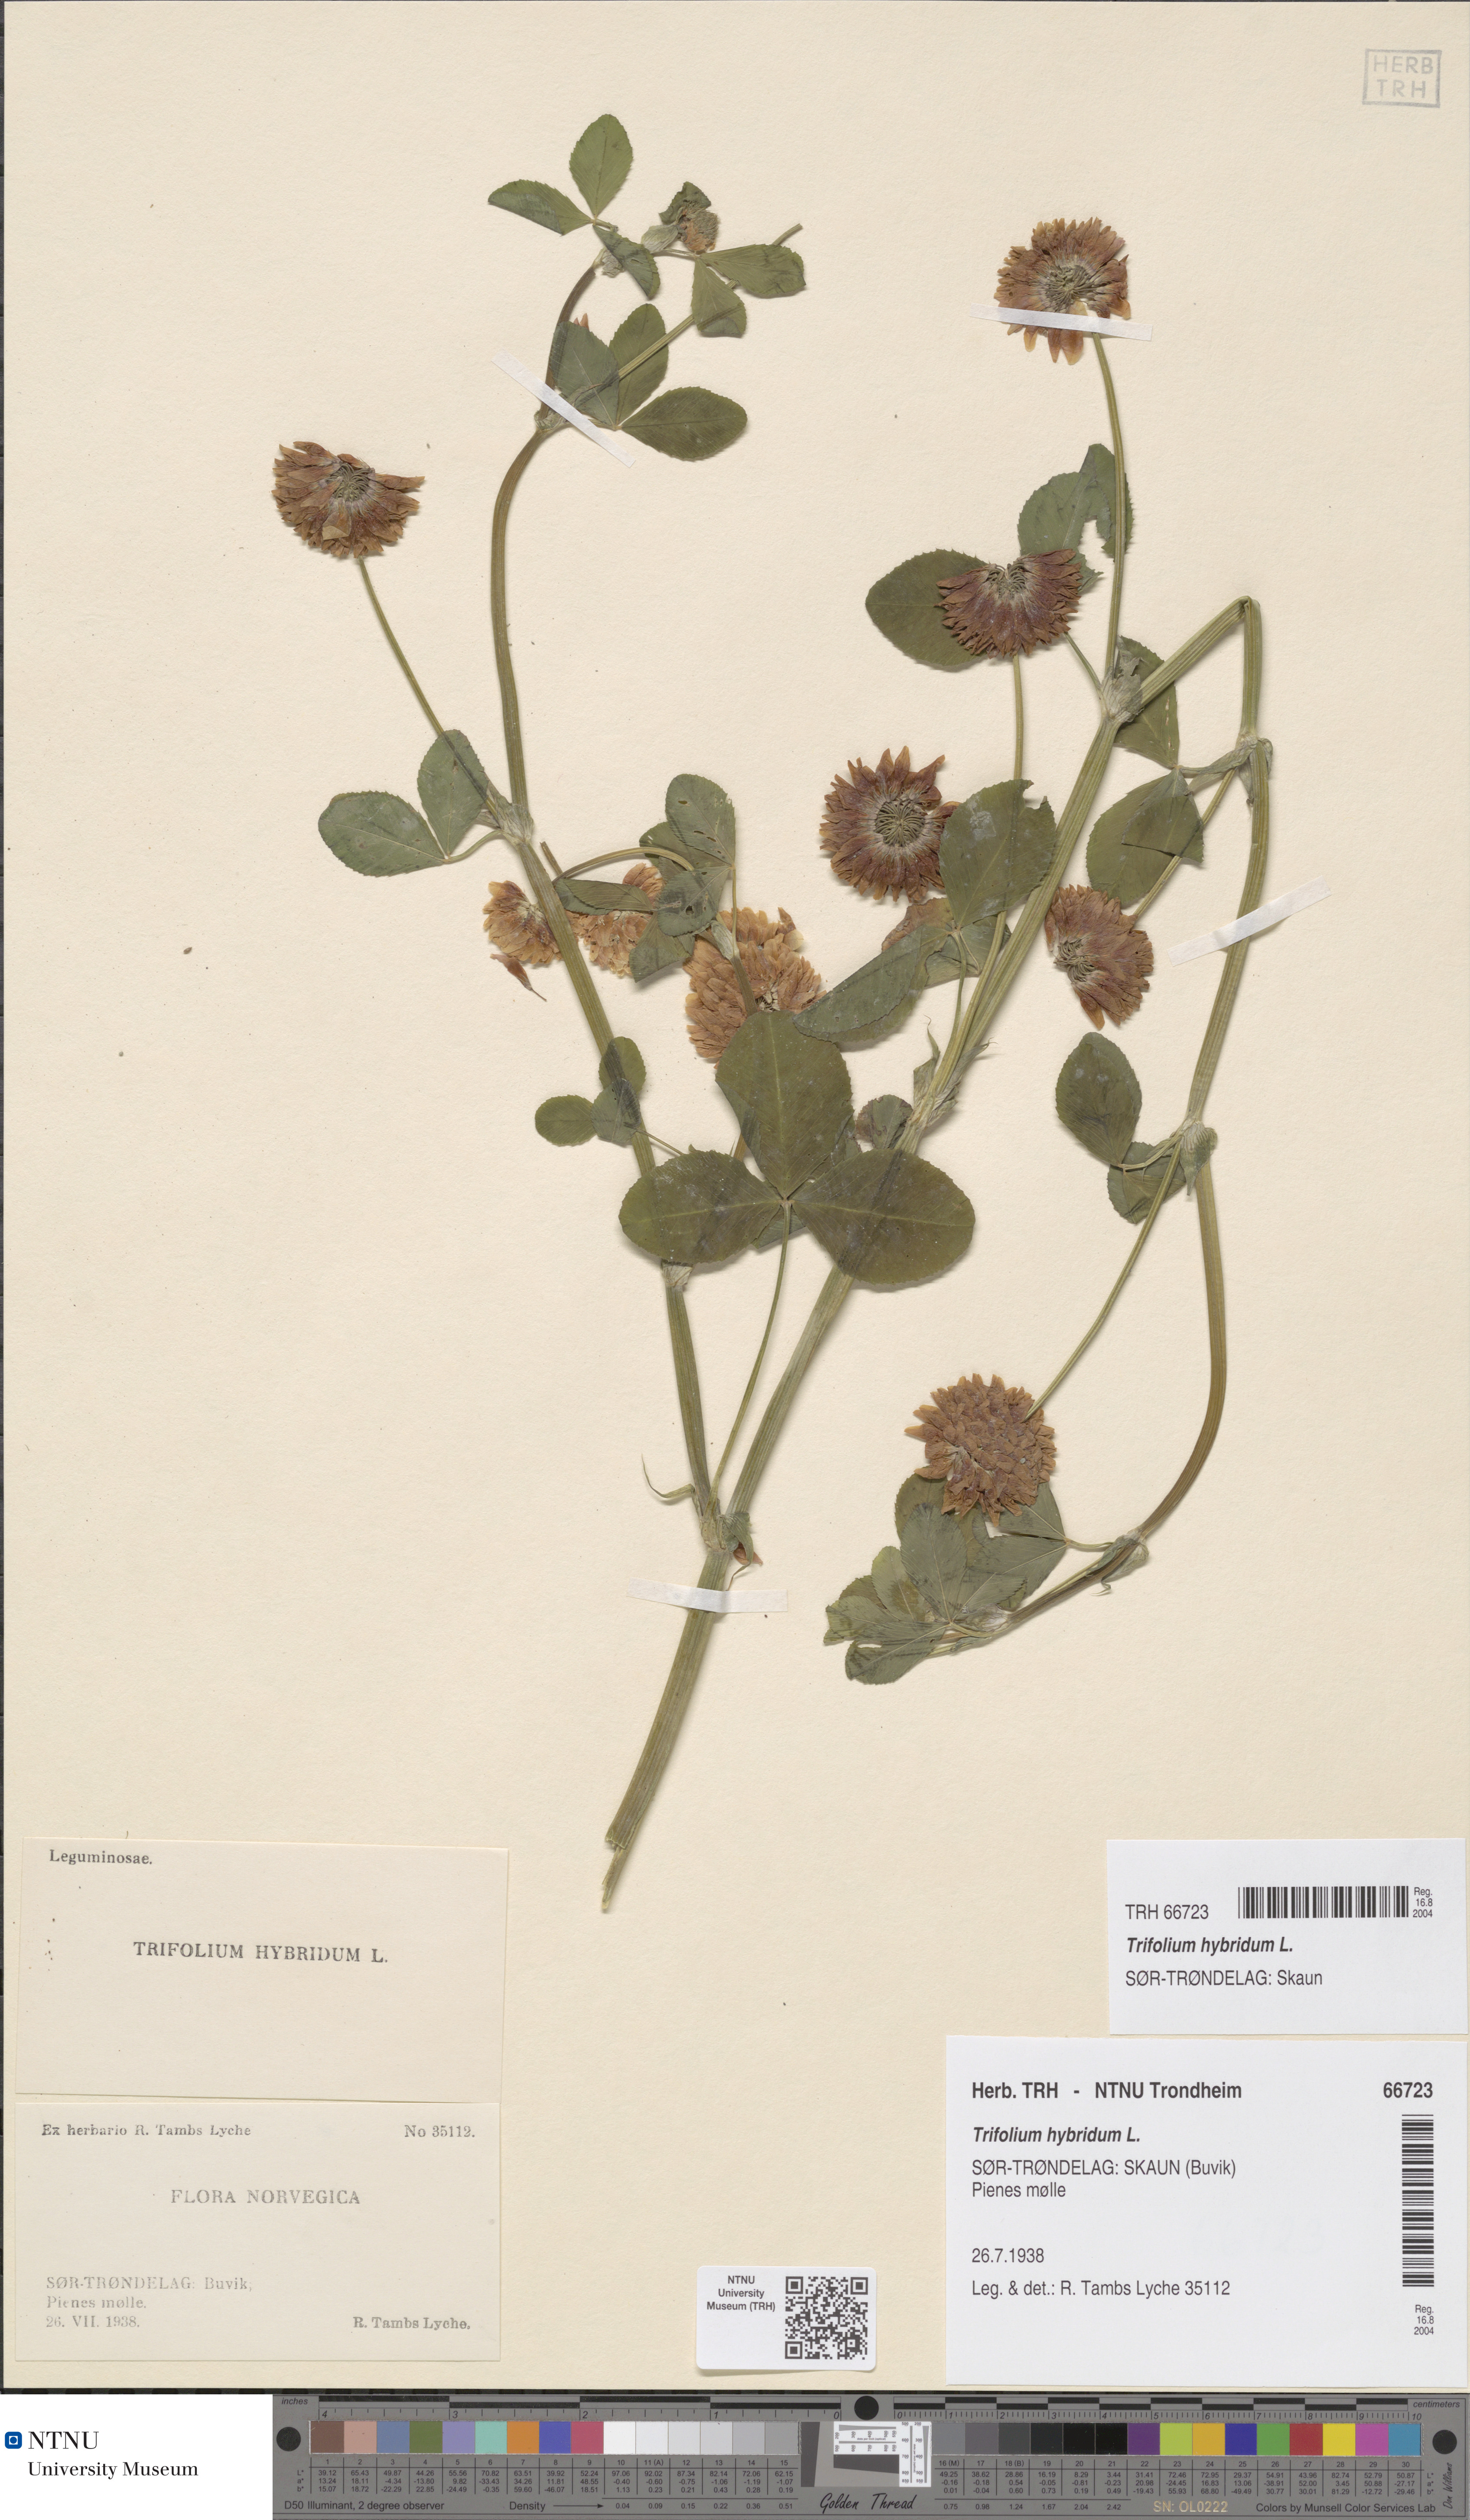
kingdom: Plantae
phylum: Tracheophyta
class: Magnoliopsida
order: Fabales
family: Fabaceae
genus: Trifolium
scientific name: Trifolium hybridum
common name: Alsike clover
